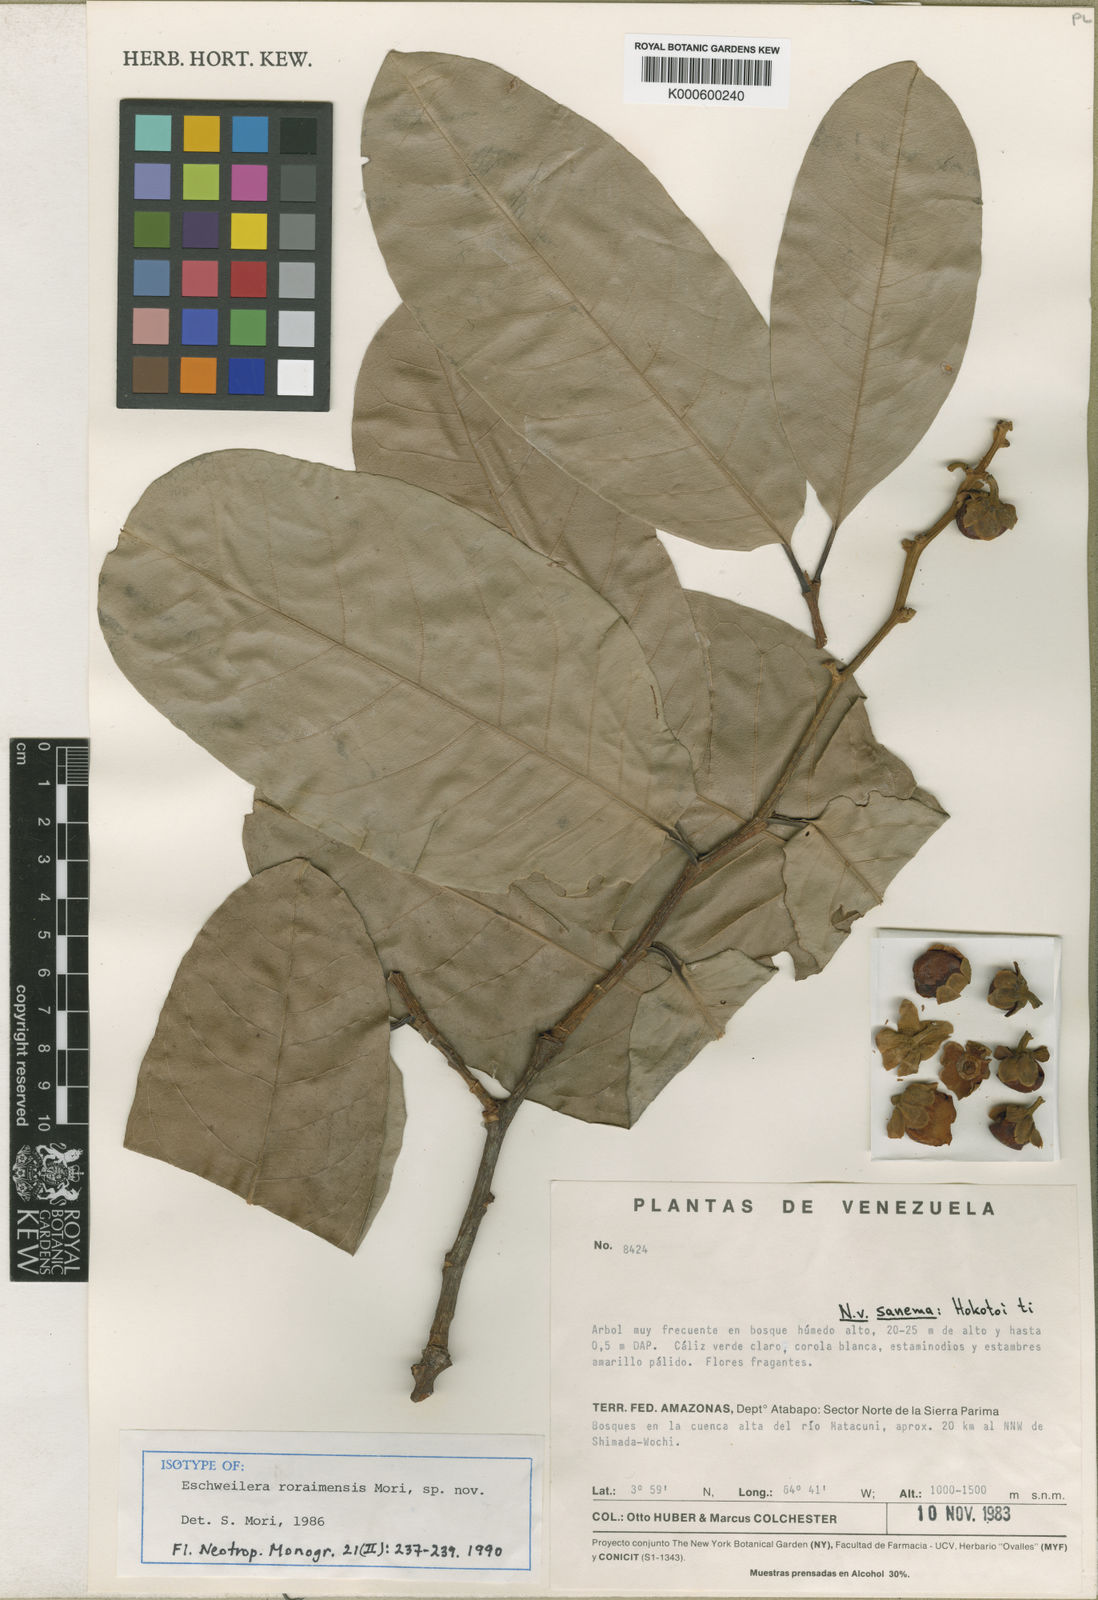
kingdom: Plantae
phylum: Tracheophyta
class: Magnoliopsida
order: Ericales
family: Lecythidaceae
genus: Eschweilera
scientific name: Eschweilera roraimensis
